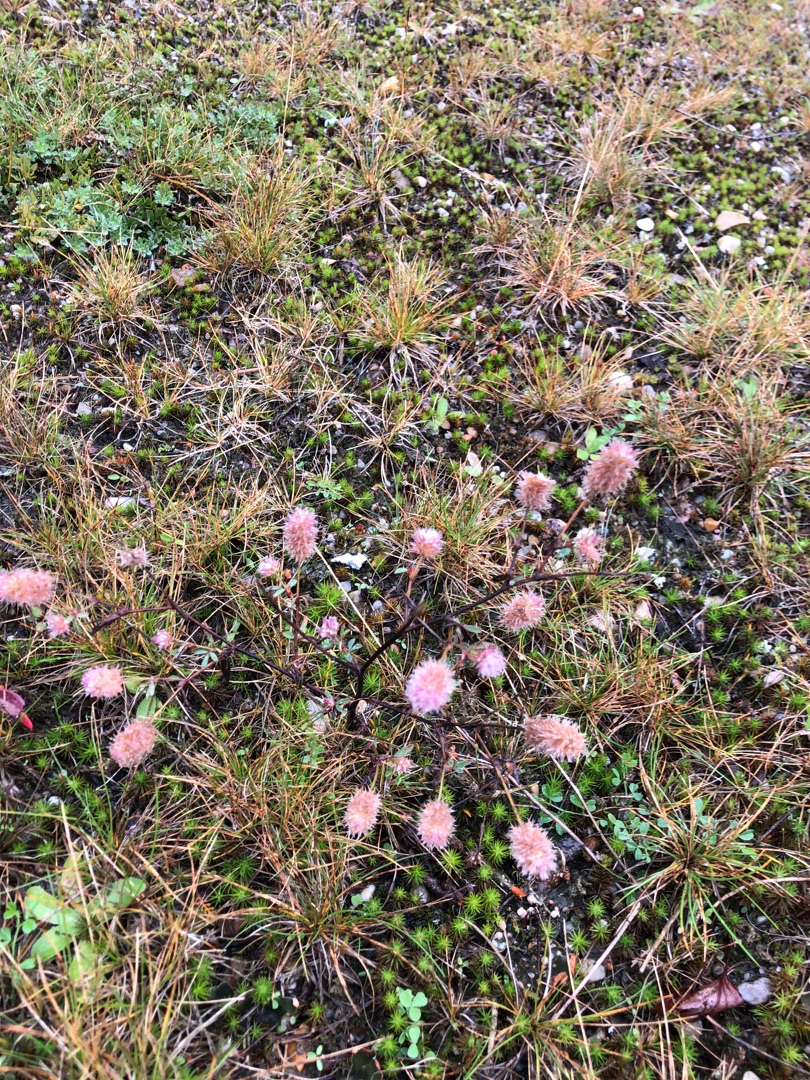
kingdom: Plantae
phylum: Tracheophyta
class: Magnoliopsida
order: Fabales
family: Fabaceae
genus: Trifolium
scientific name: Trifolium arvense
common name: Hare-kløver
